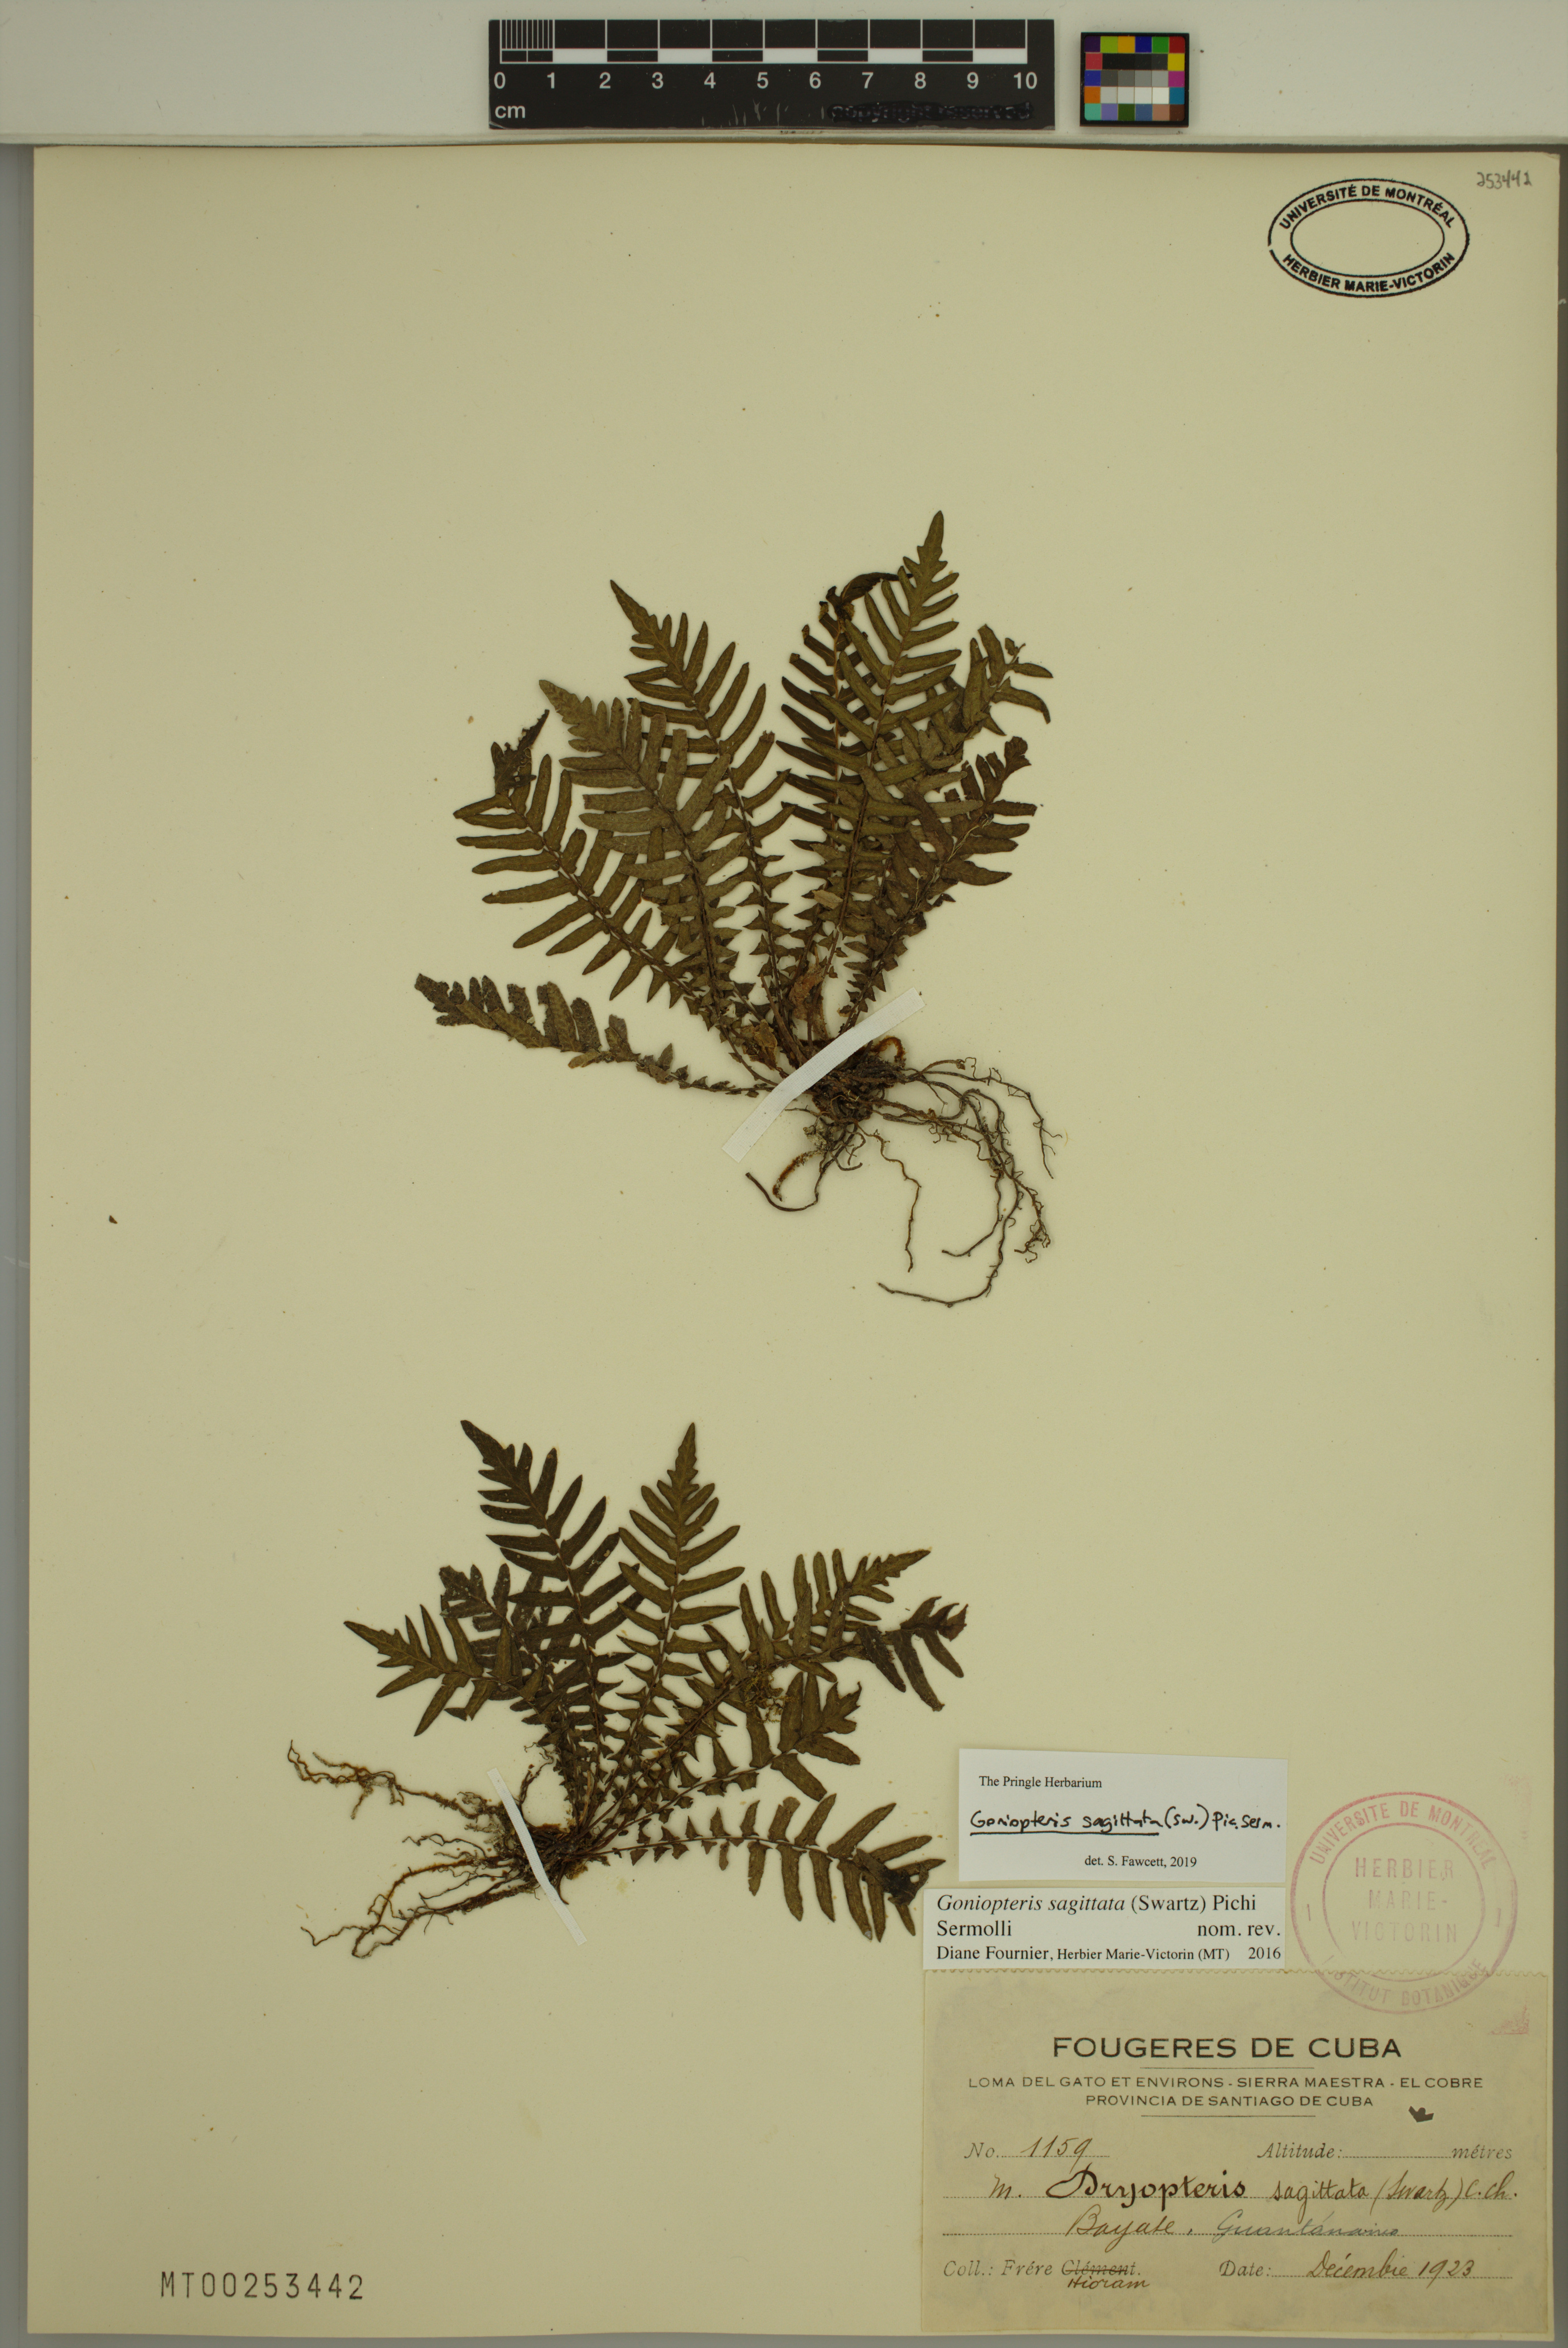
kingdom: Plantae
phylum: Tracheophyta
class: Polypodiopsida
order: Polypodiales
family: Thelypteridaceae
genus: Goniopteris
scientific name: Goniopteris sagittata
